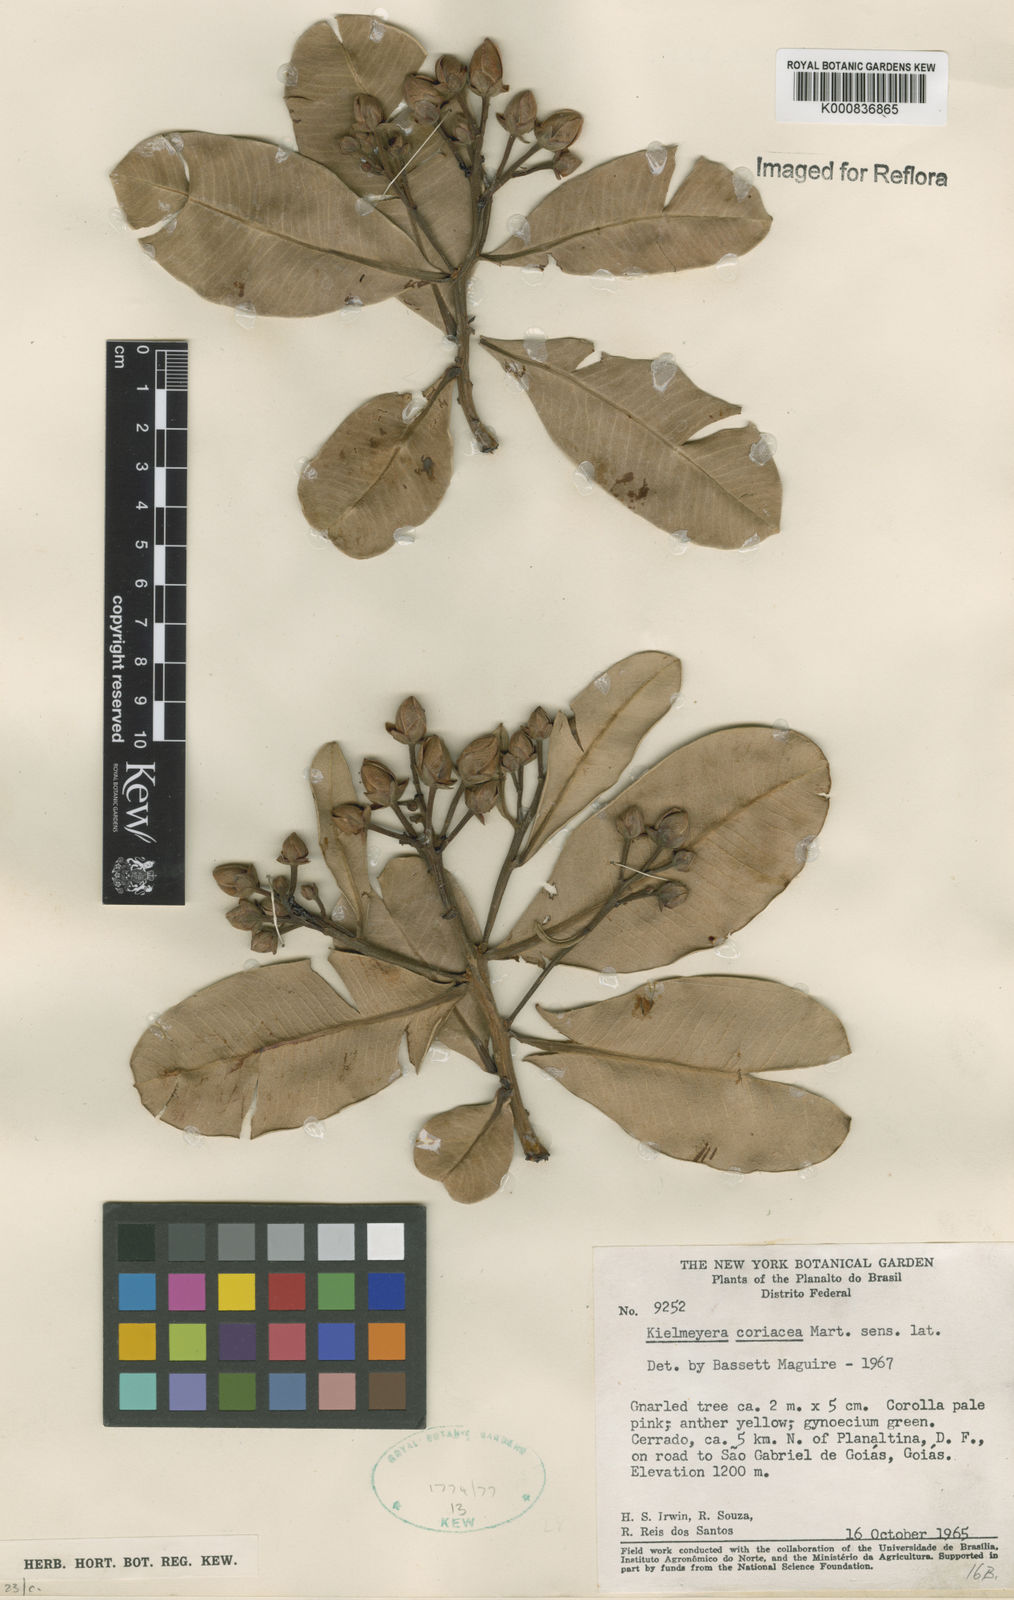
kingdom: Plantae
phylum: Tracheophyta
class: Magnoliopsida
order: Malpighiales
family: Calophyllaceae
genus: Kielmeyera
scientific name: Kielmeyera coriacea
